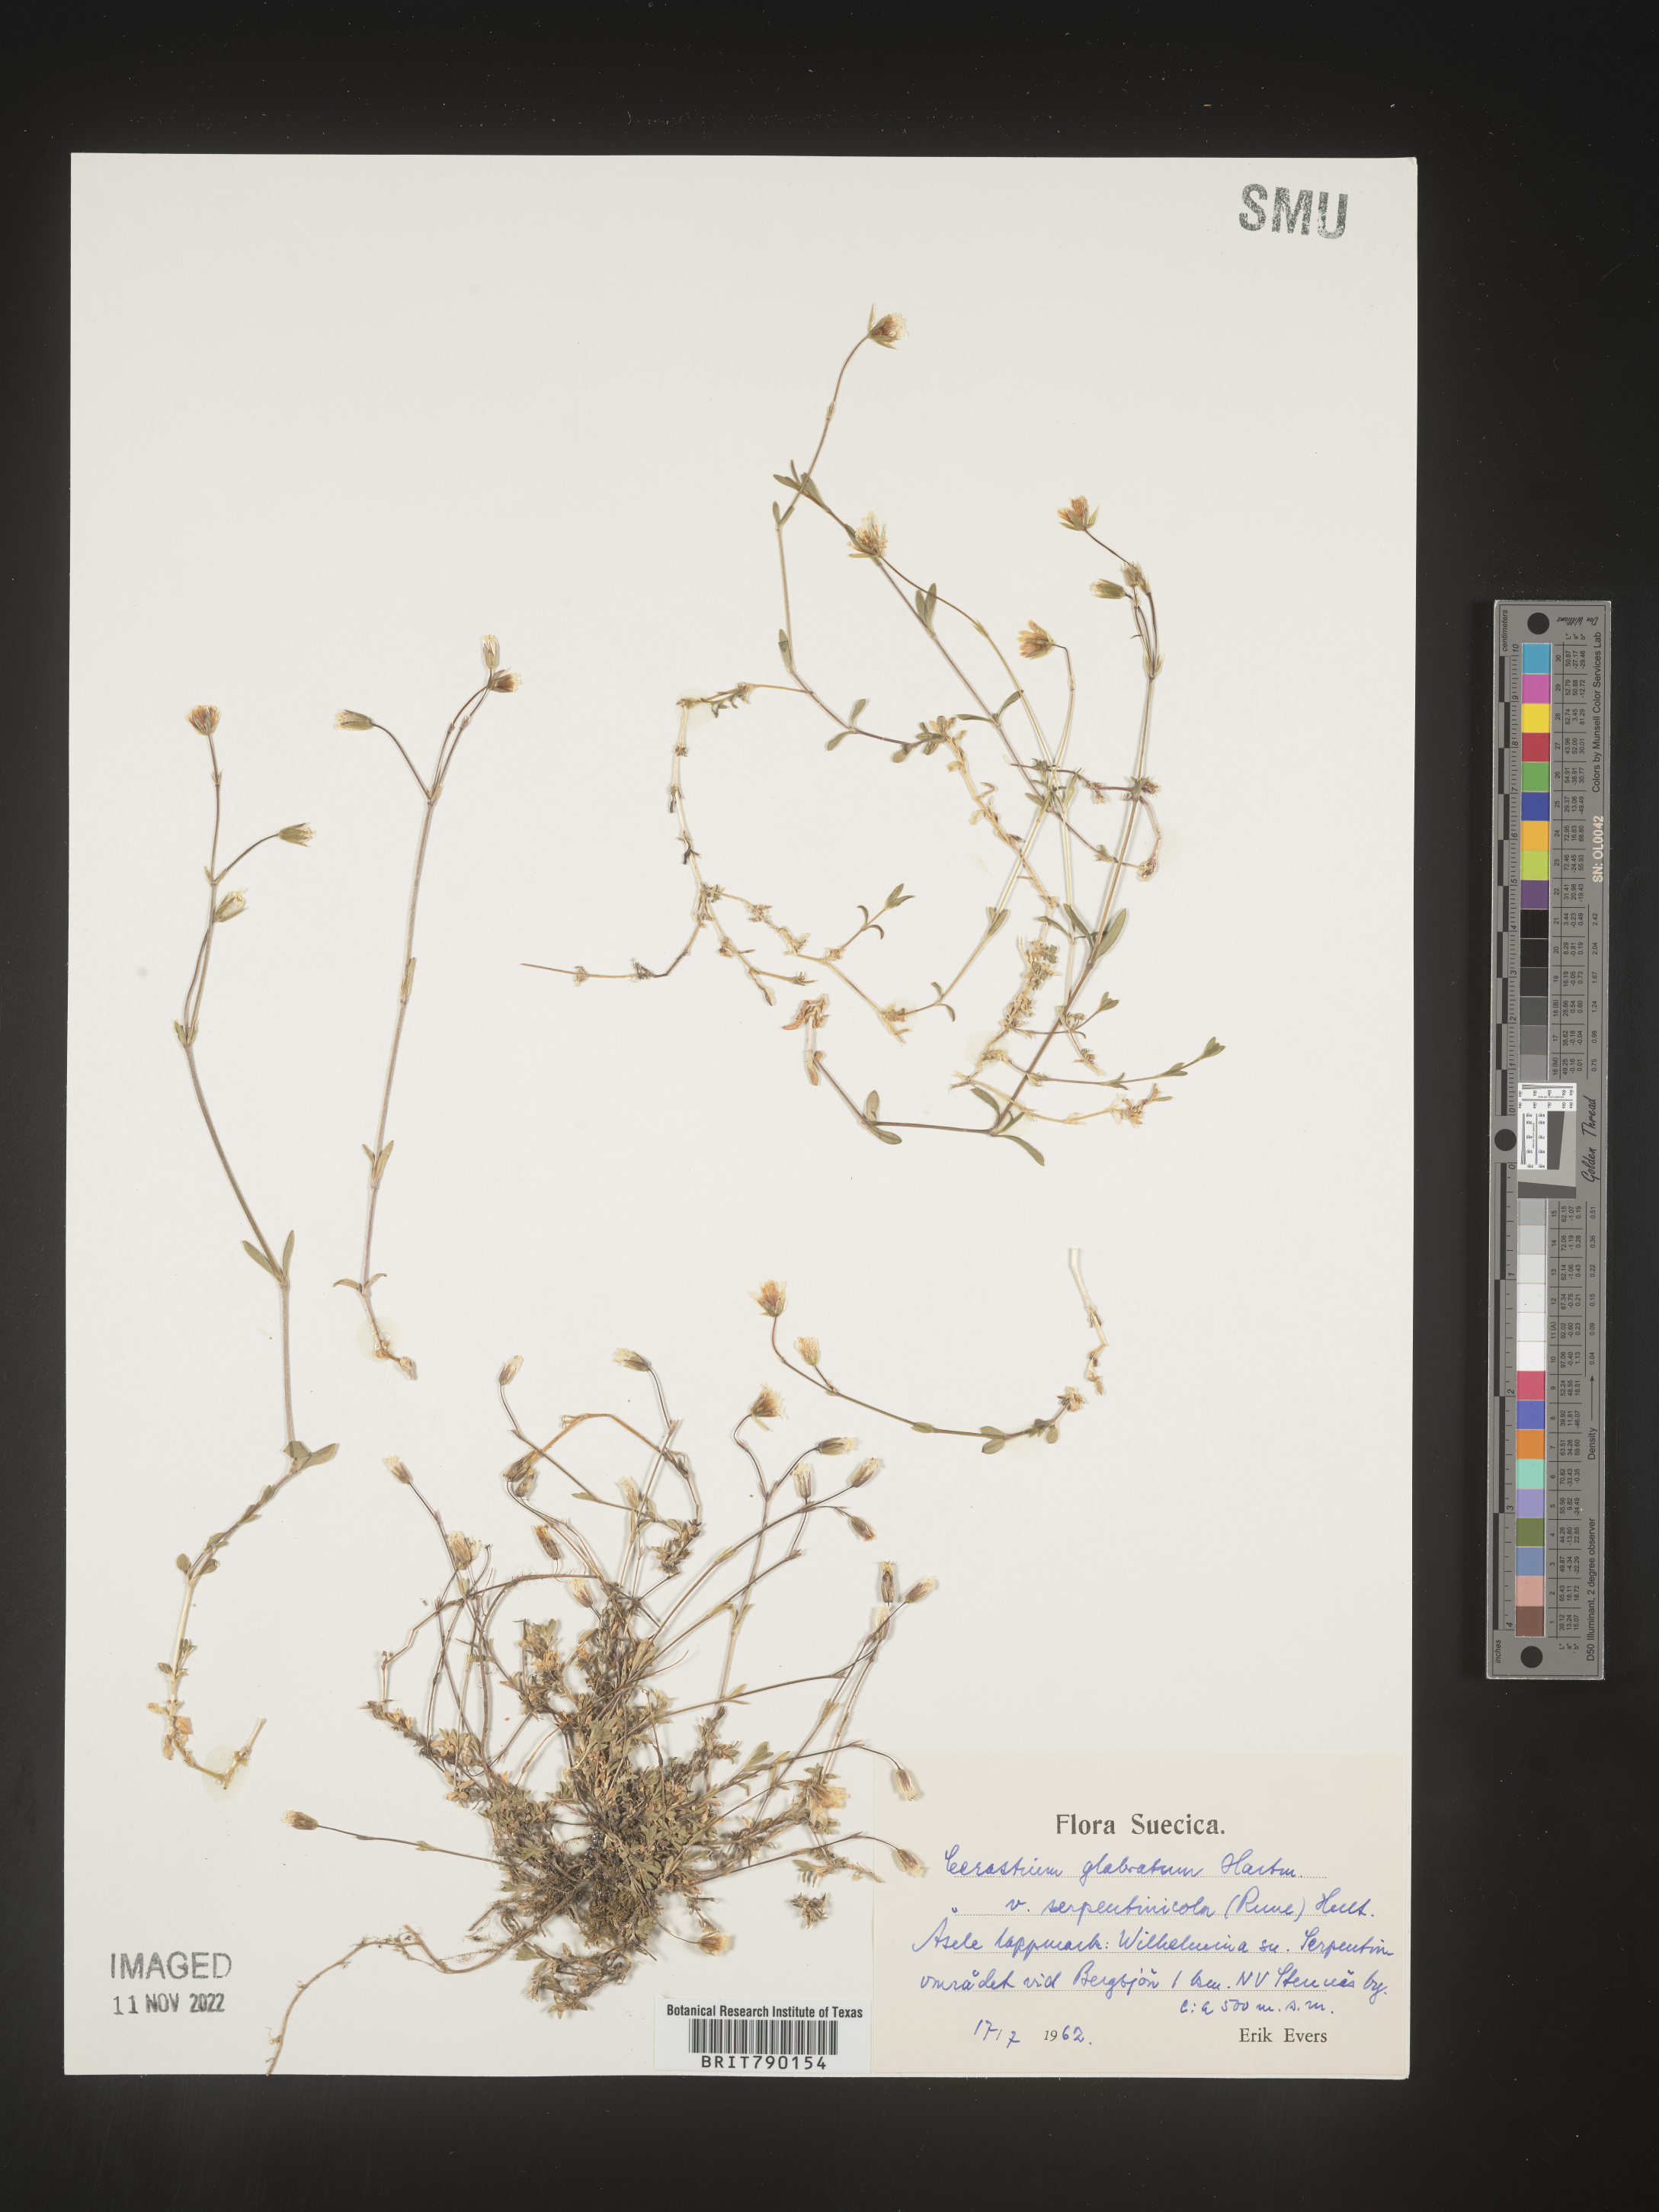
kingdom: Plantae
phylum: Tracheophyta
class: Magnoliopsida
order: Caryophyllales
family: Caryophyllaceae
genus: Cerastium
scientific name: Cerastium
